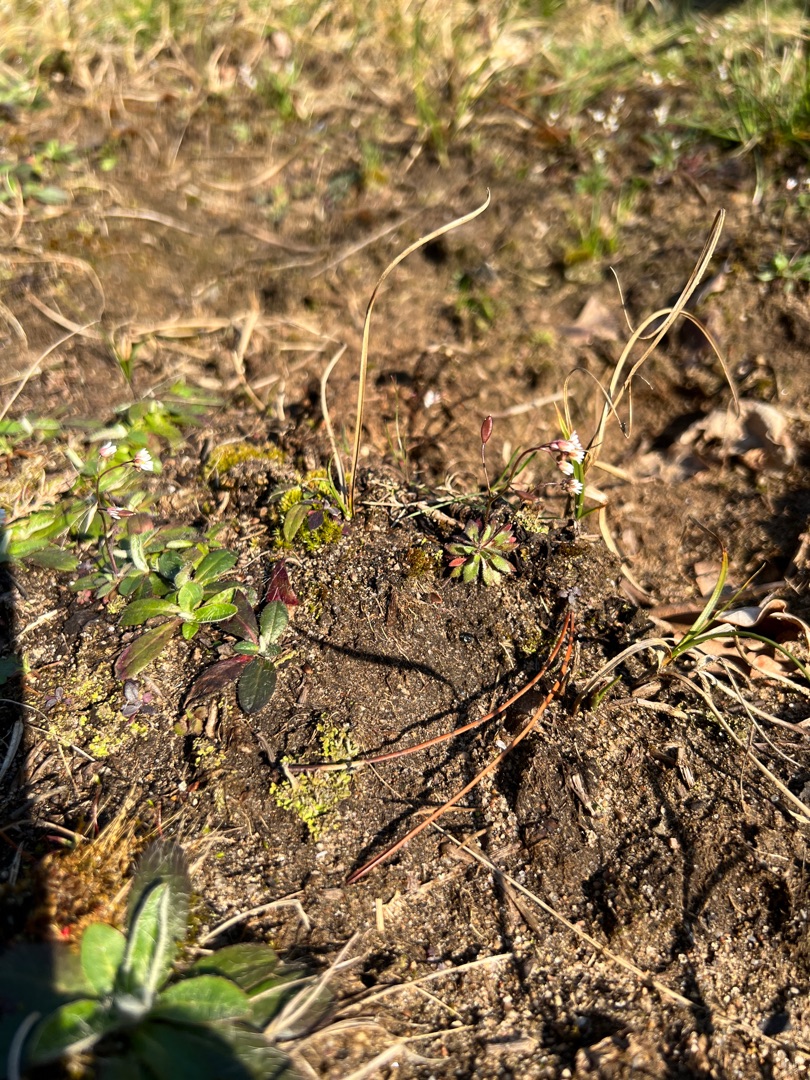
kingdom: Plantae
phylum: Tracheophyta
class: Magnoliopsida
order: Brassicales
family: Brassicaceae
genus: Draba
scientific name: Draba verna
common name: Vår-gæslingeblomst
